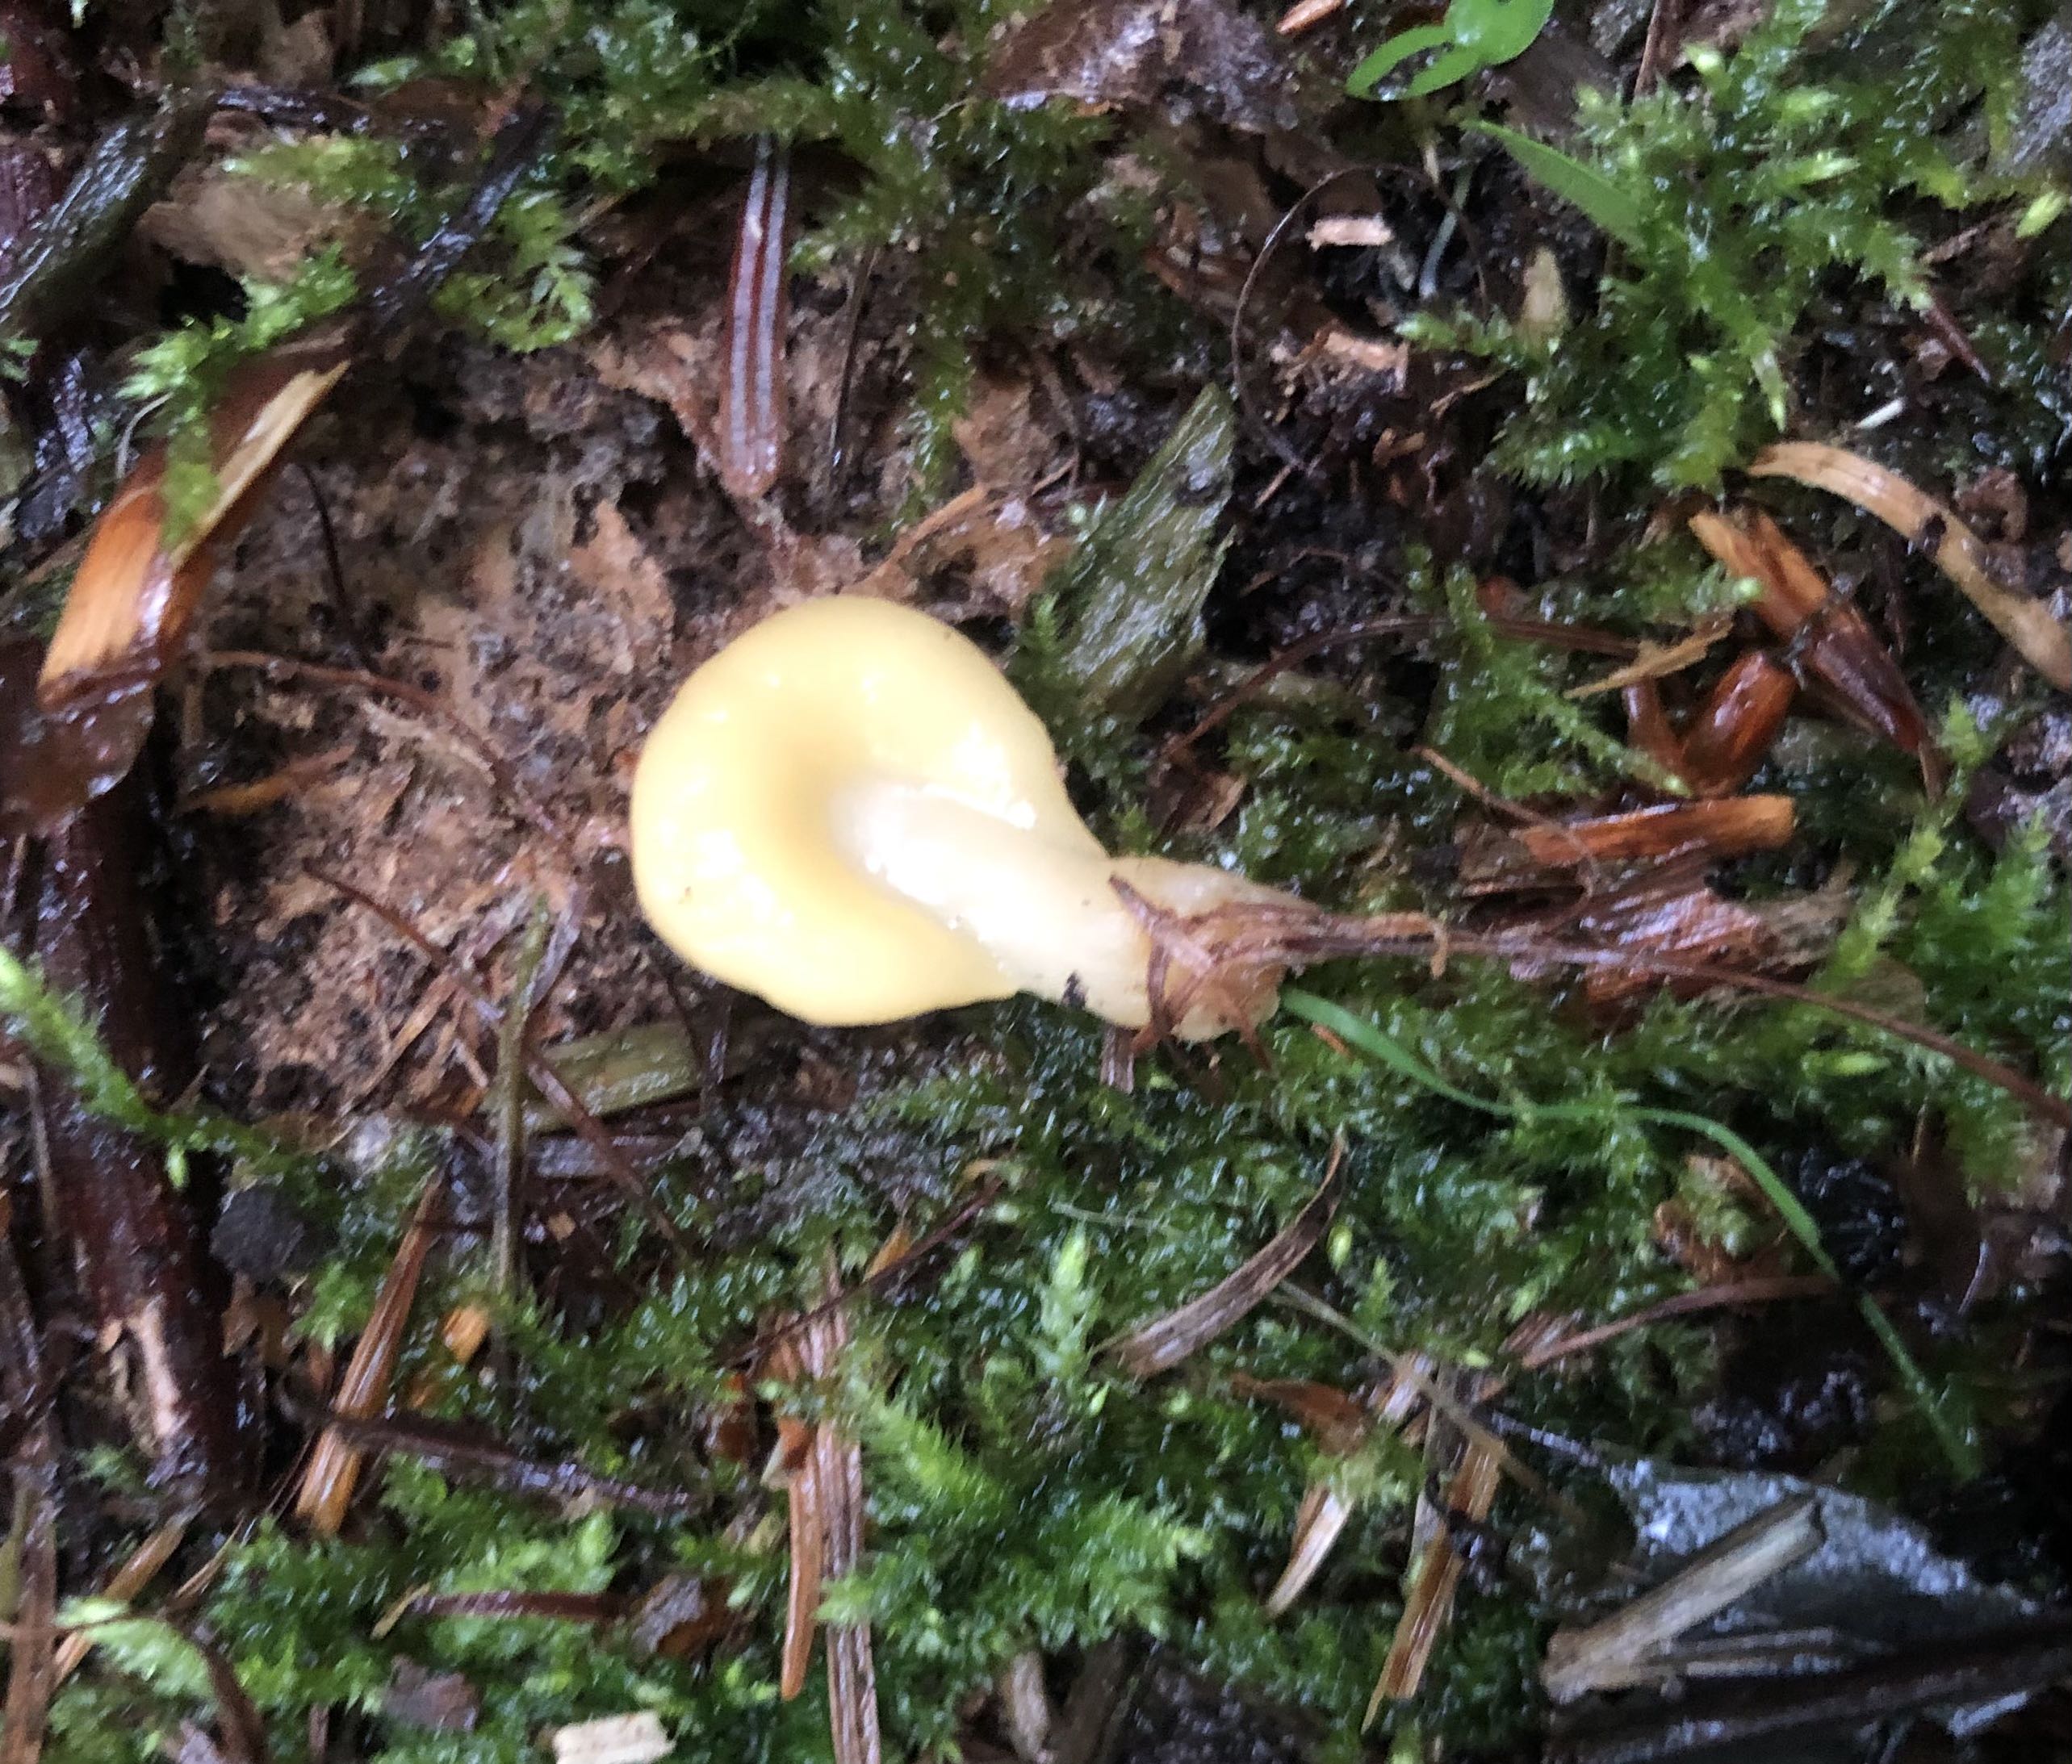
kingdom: Fungi
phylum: Ascomycota
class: Leotiomycetes
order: Rhytismatales
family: Cudoniaceae
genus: Spathularia
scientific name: Spathularia flavida
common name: gul spatelsvamp
